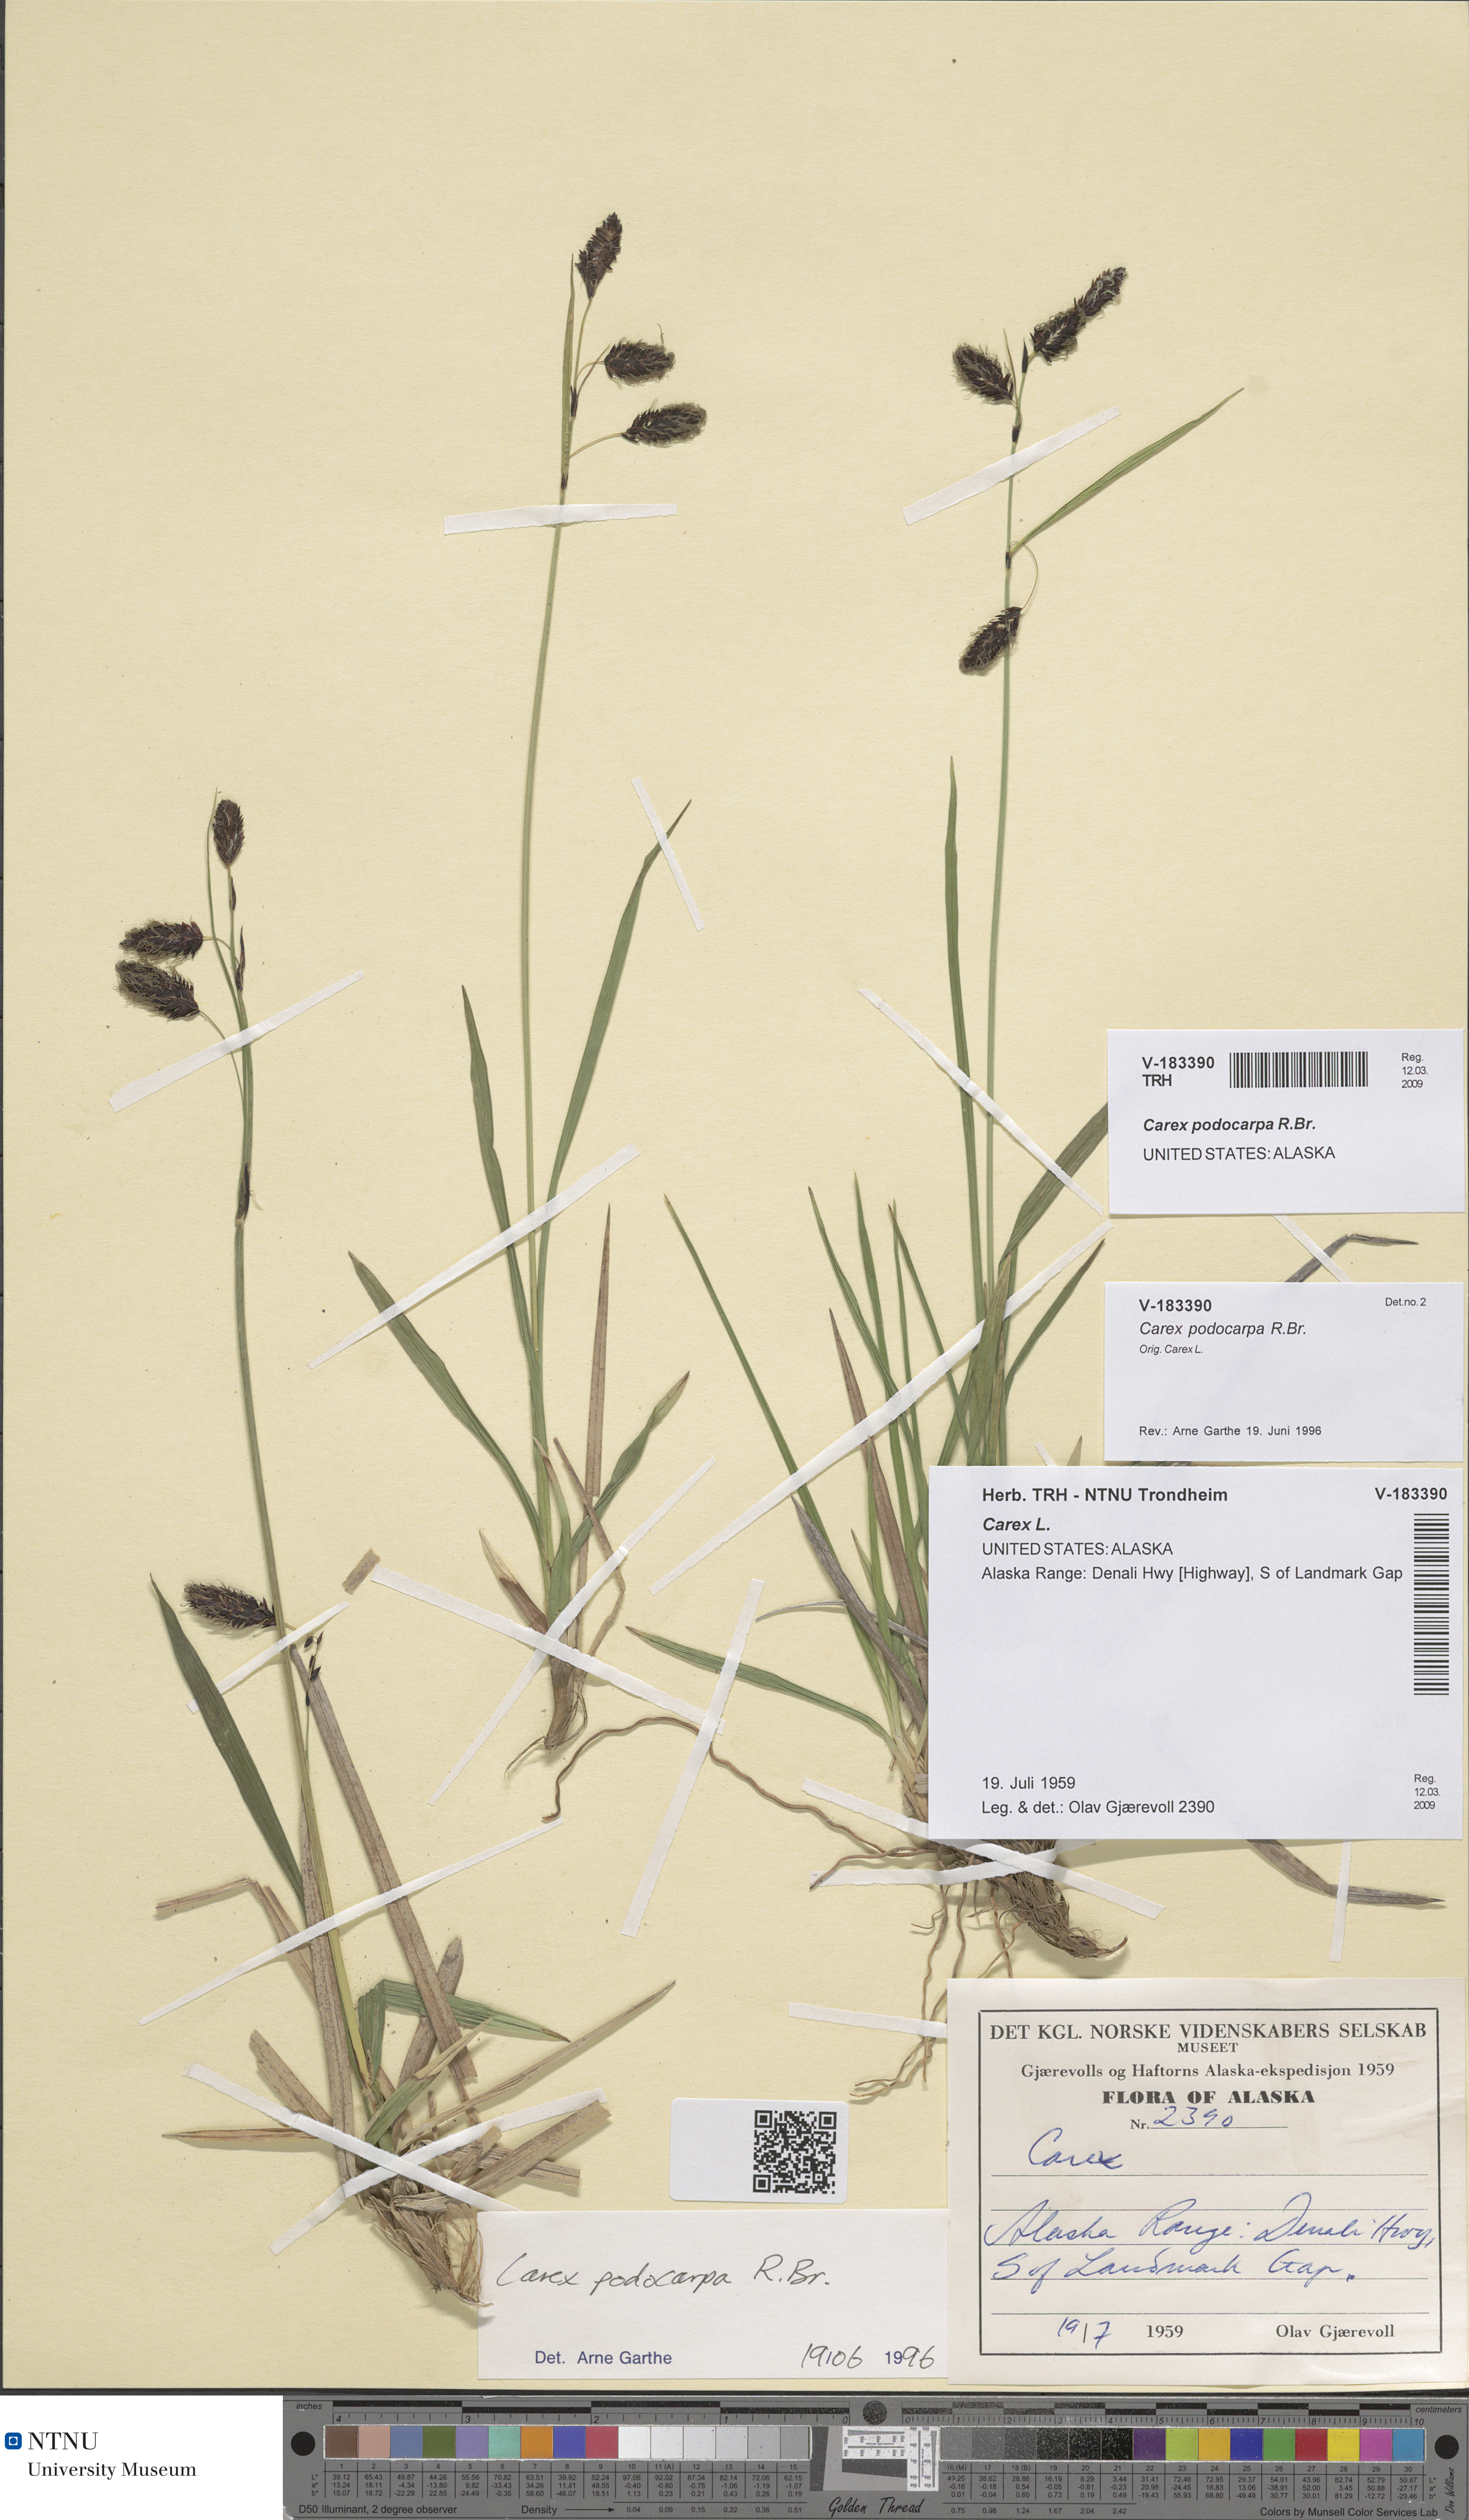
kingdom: Plantae
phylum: Tracheophyta
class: Liliopsida
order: Poales
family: Cyperaceae
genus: Carex
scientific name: Carex podocarpa
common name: Alpine sedge
